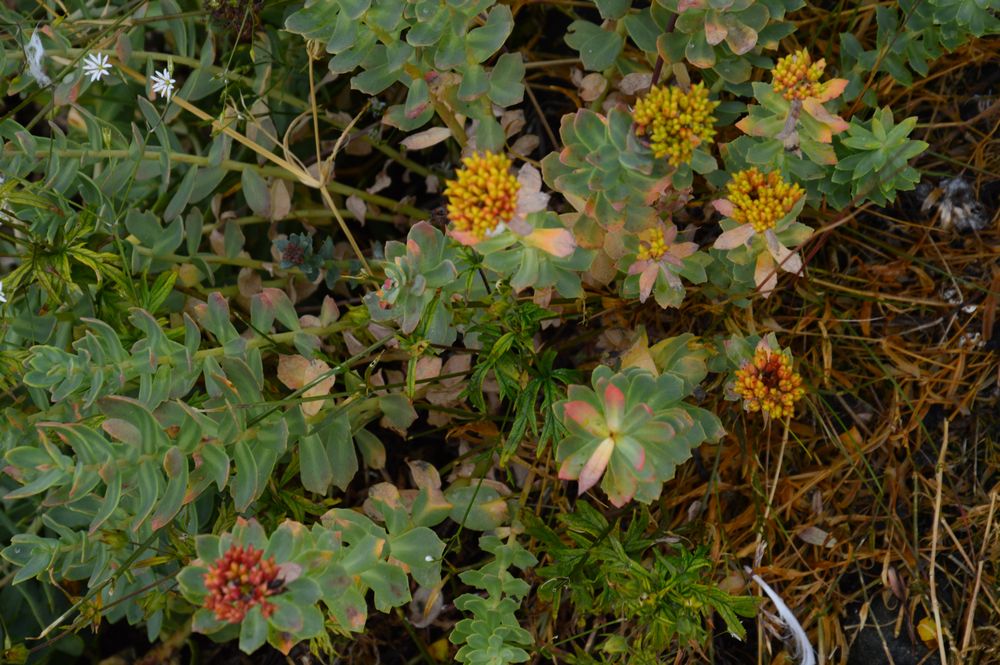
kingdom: Plantae
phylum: Tracheophyta
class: Magnoliopsida
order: Saxifragales
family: Crassulaceae
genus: Rhodiola
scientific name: Rhodiola rosea
